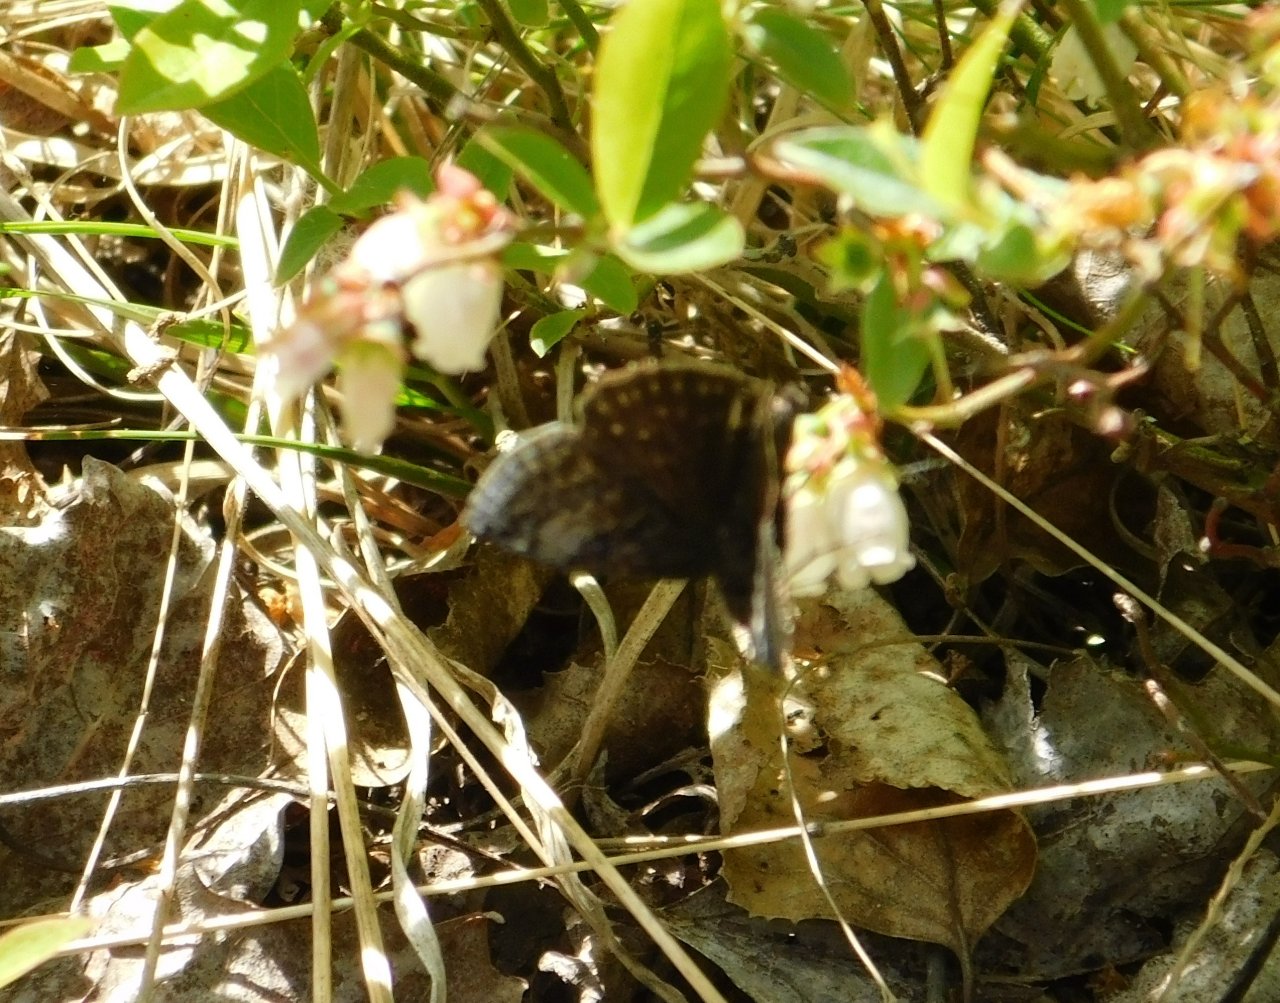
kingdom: Animalia
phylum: Arthropoda
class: Insecta
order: Lepidoptera
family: Hesperiidae
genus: Erynnis
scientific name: Erynnis icelus
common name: Dreamy Duskywing
